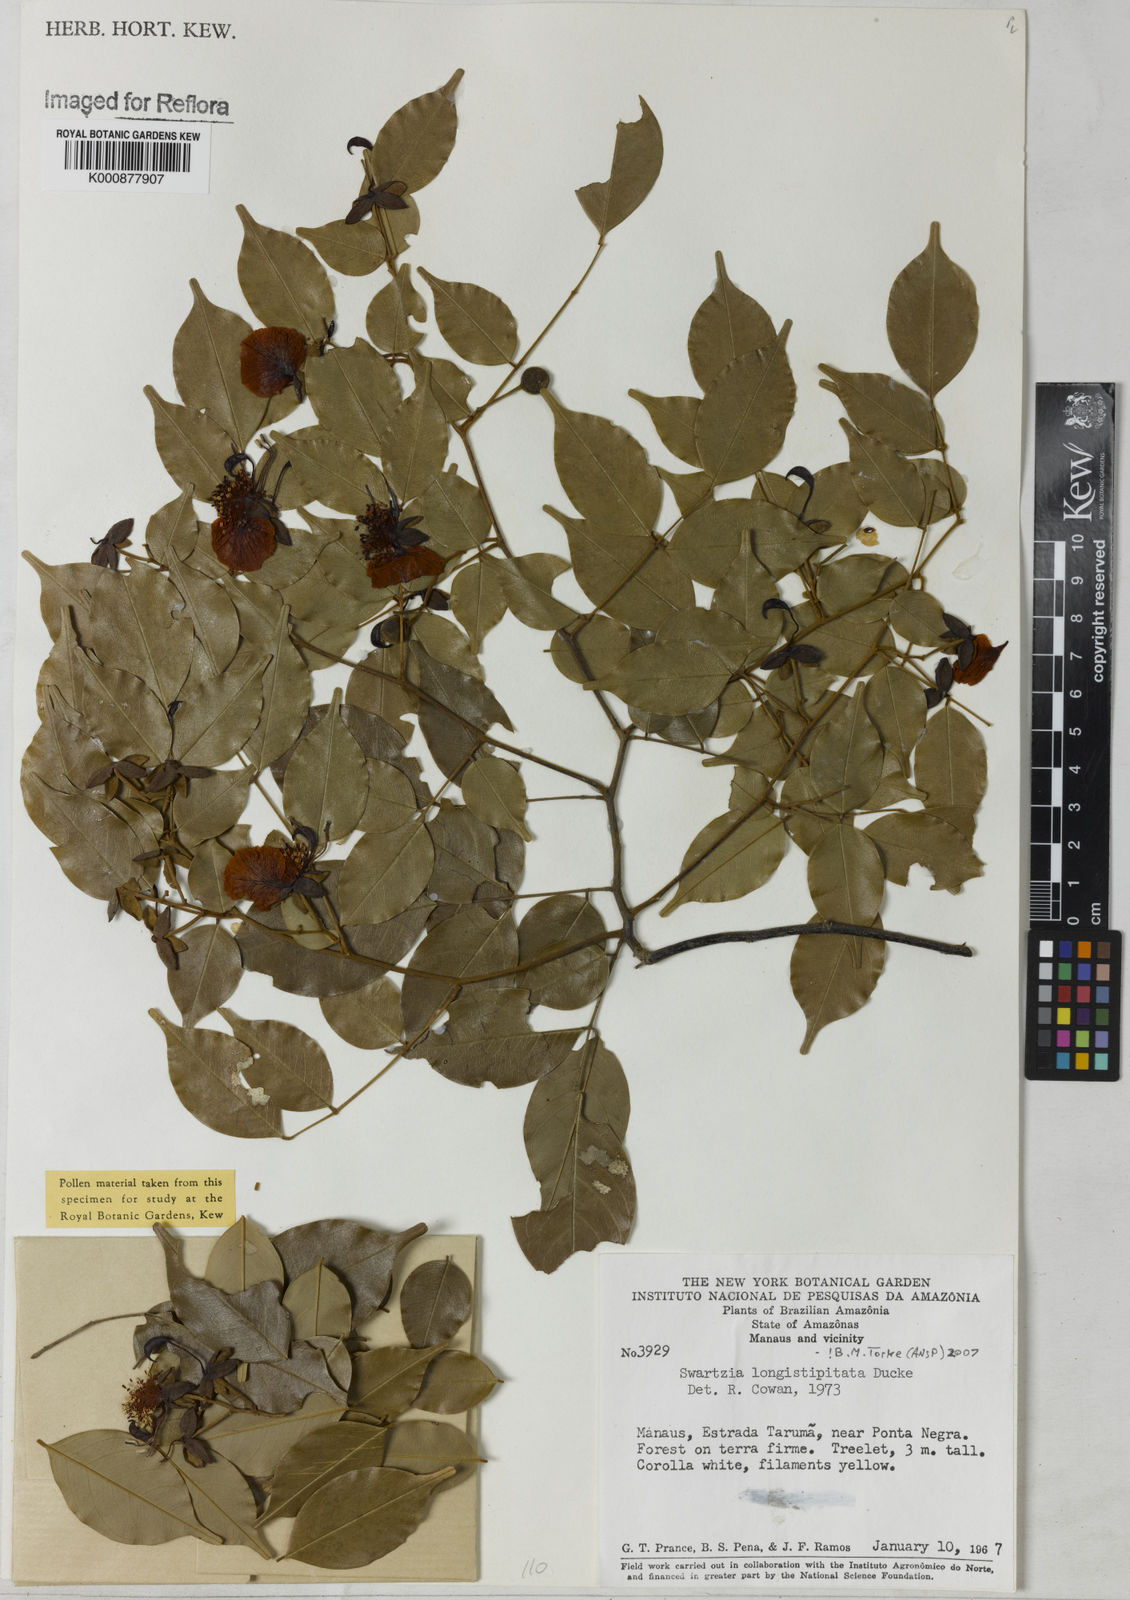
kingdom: Plantae
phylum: Tracheophyta
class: Magnoliopsida
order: Fabales
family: Fabaceae
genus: Swartzia
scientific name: Swartzia longistipitata
